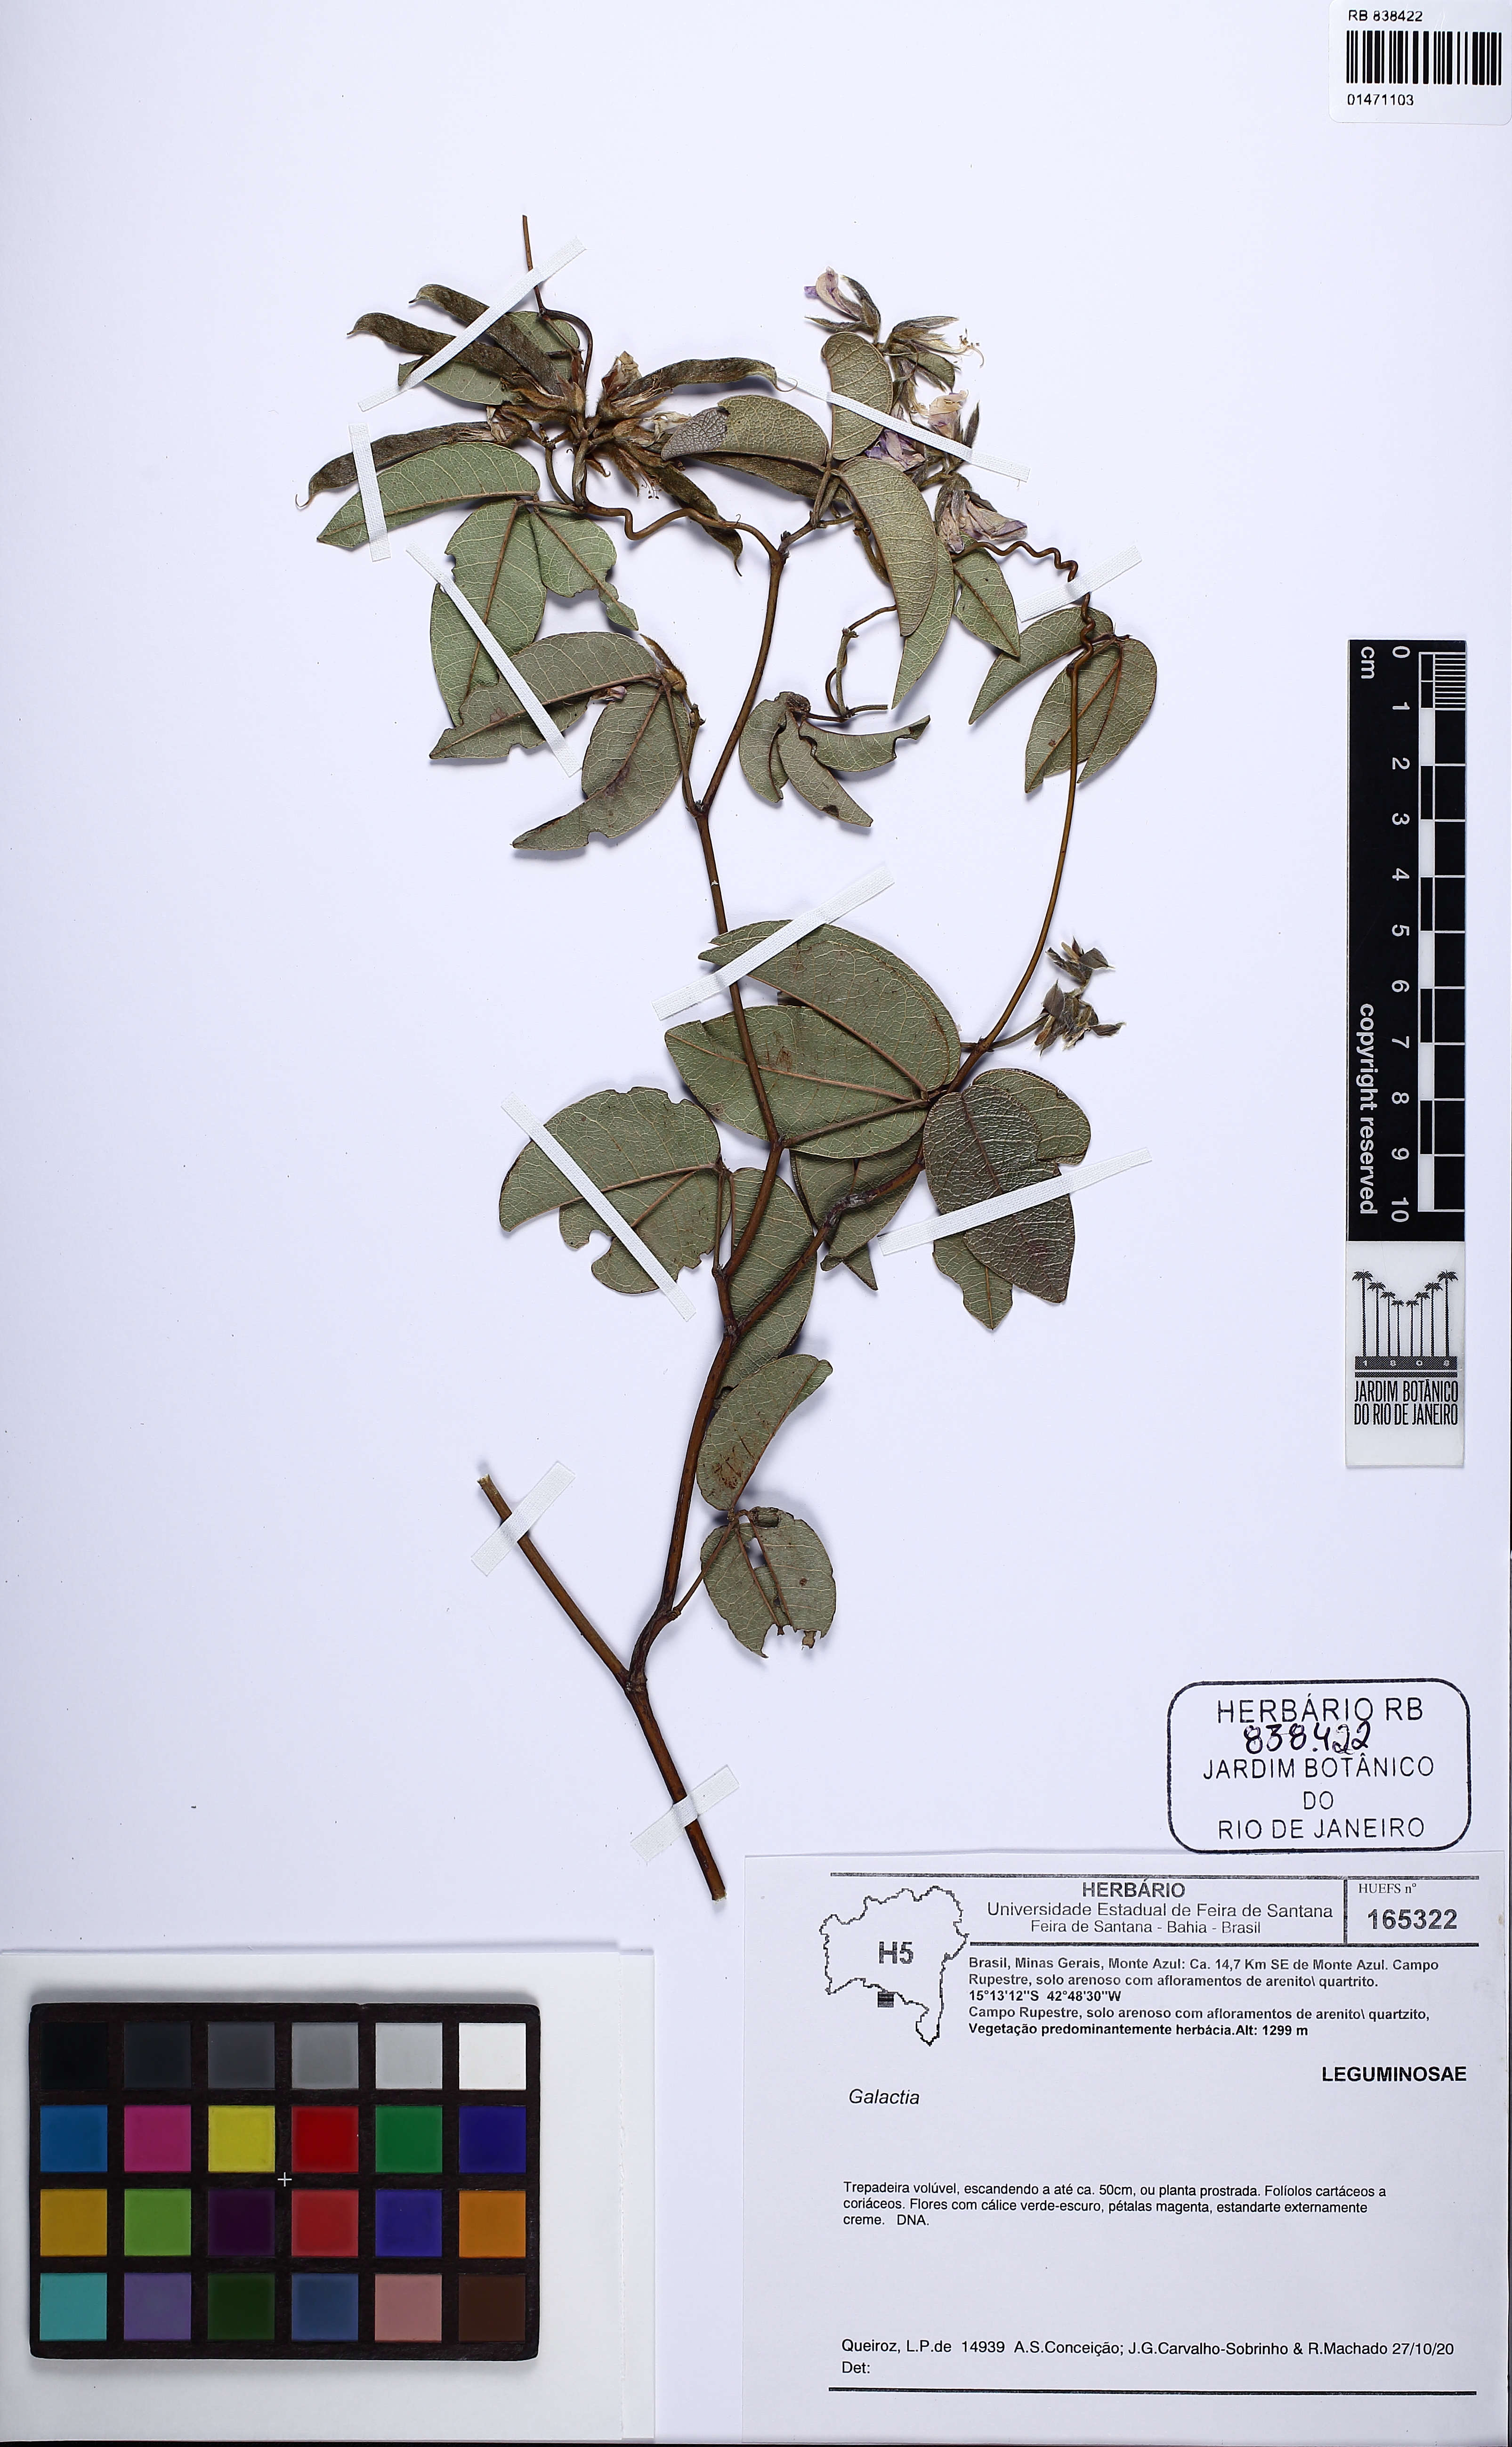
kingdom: Plantae
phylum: Tracheophyta
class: Magnoliopsida
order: Fabales
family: Fabaceae
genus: Betencourtia
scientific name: Betencourtia neesii
